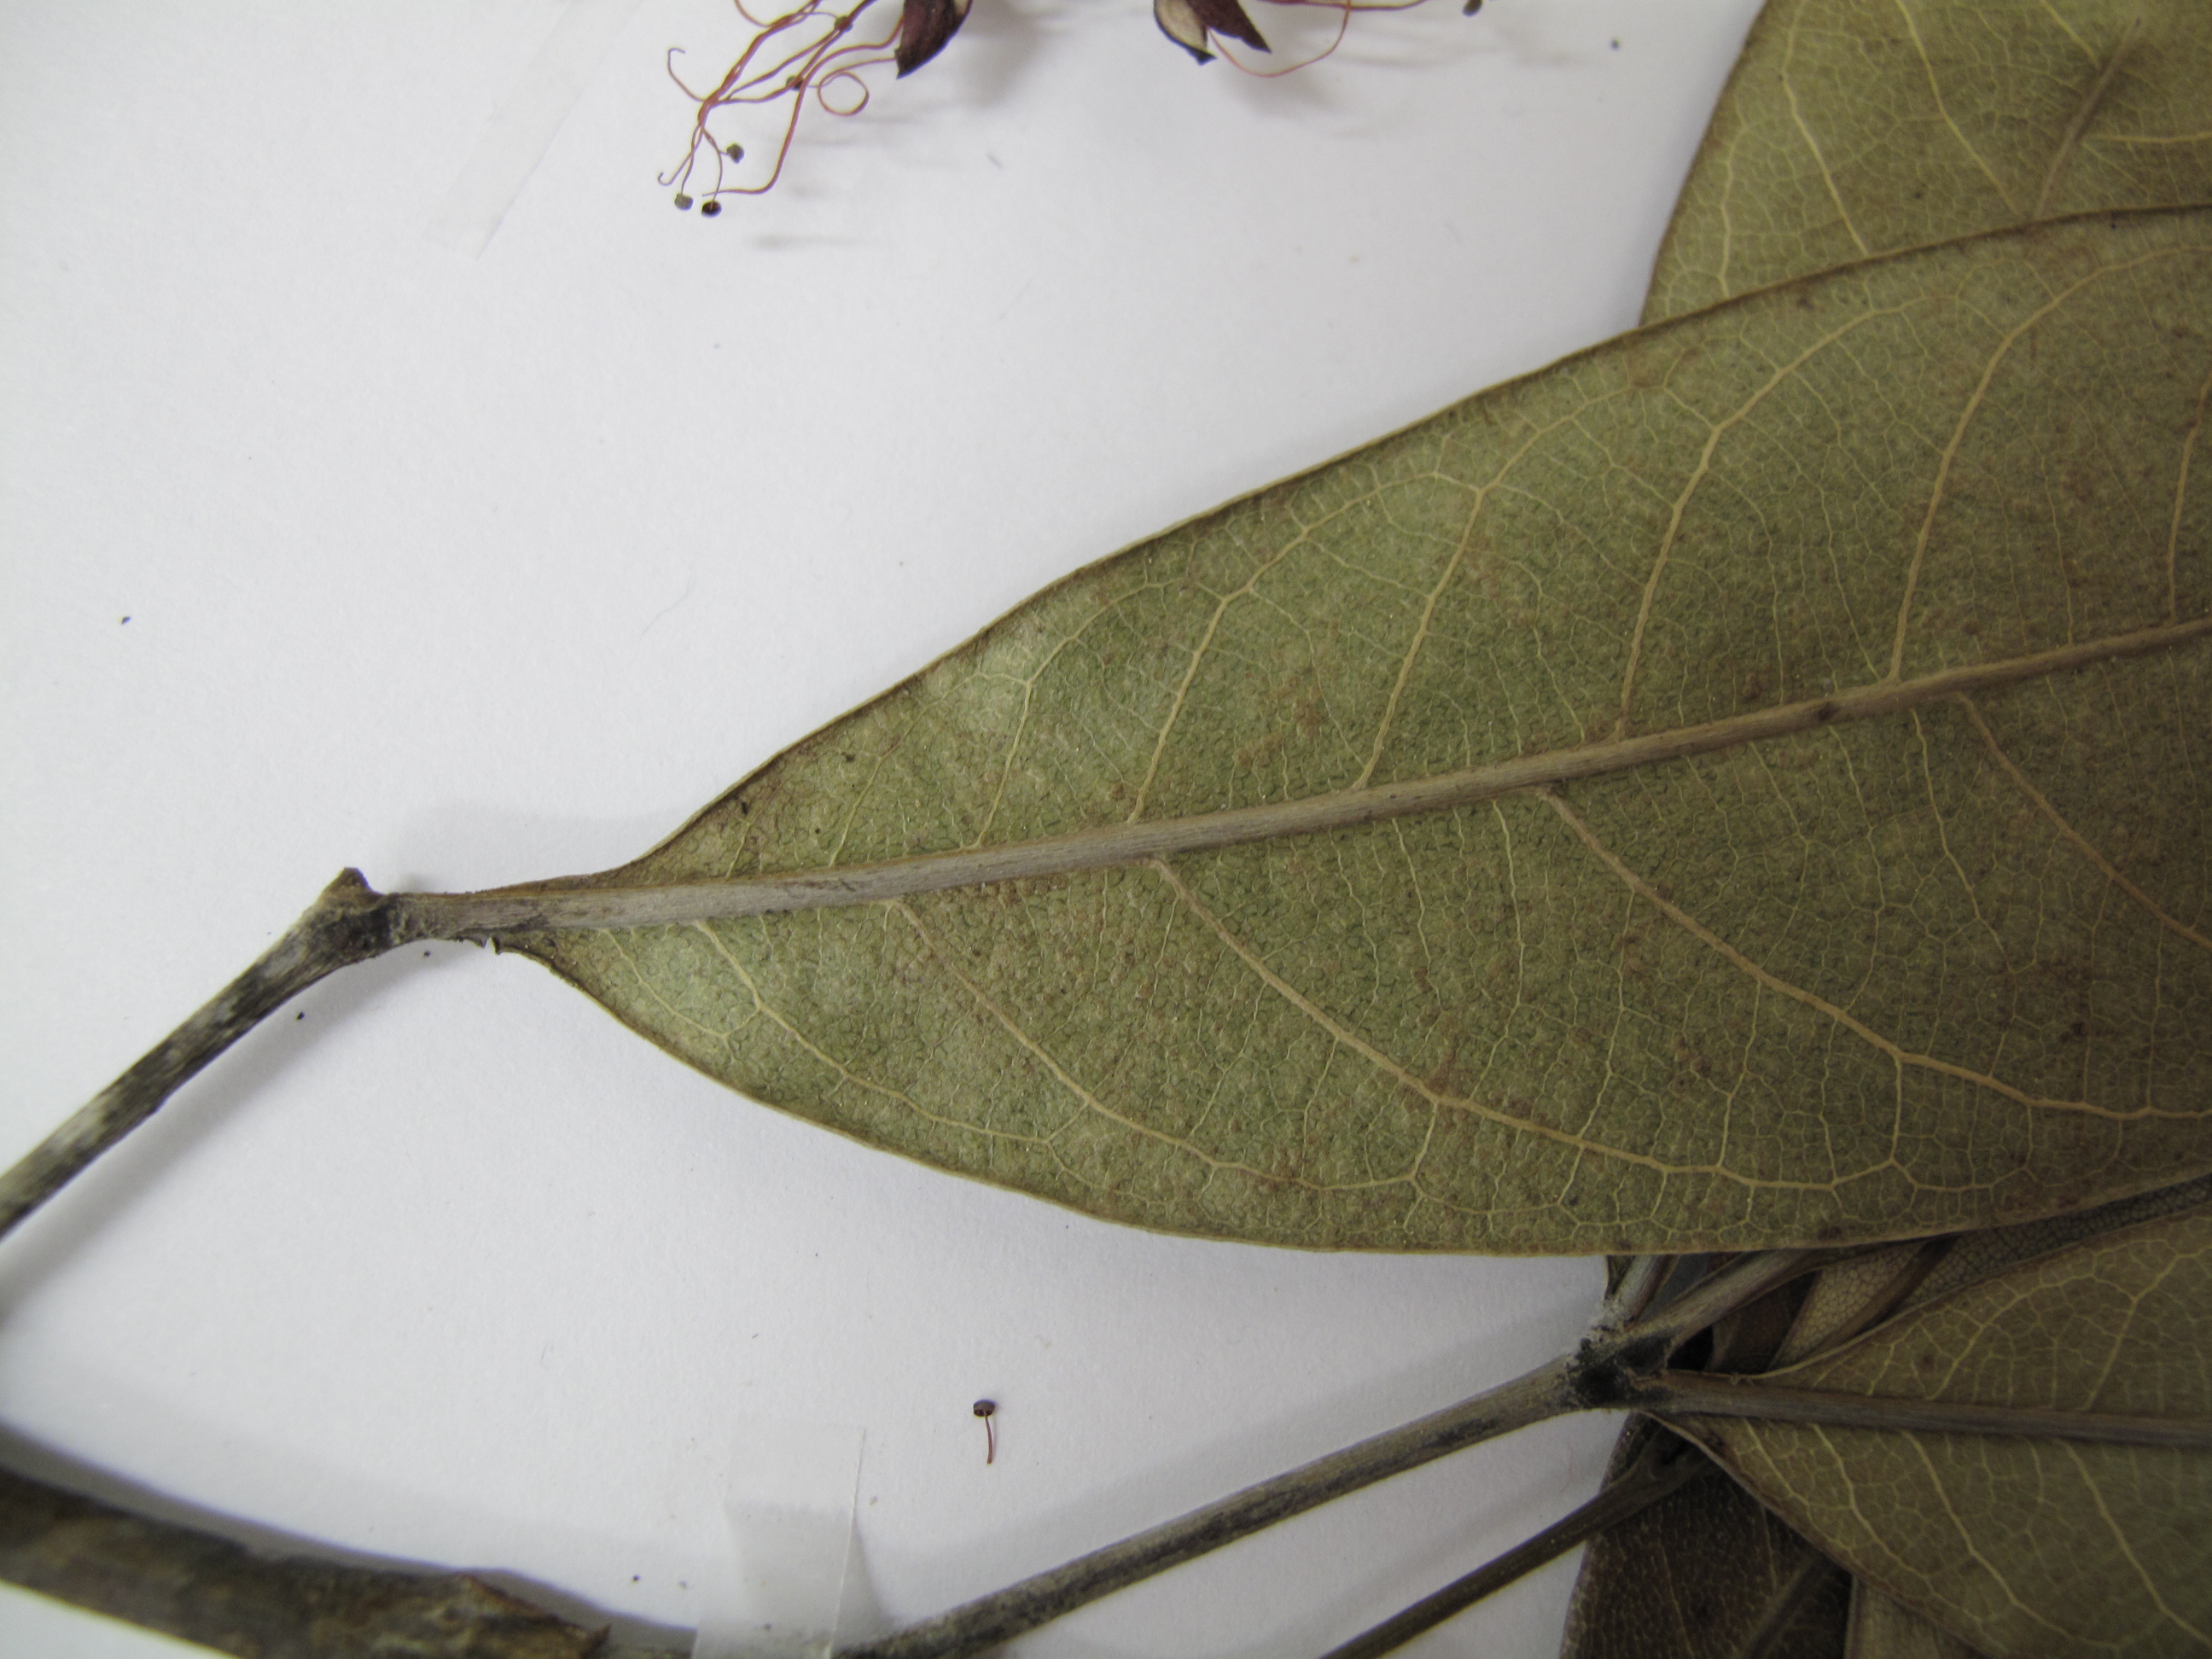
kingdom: Plantae
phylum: Tracheophyta
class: Magnoliopsida
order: Oxalidales
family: Cunoniaceae
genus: Geissois
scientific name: Geissois bradfordii
